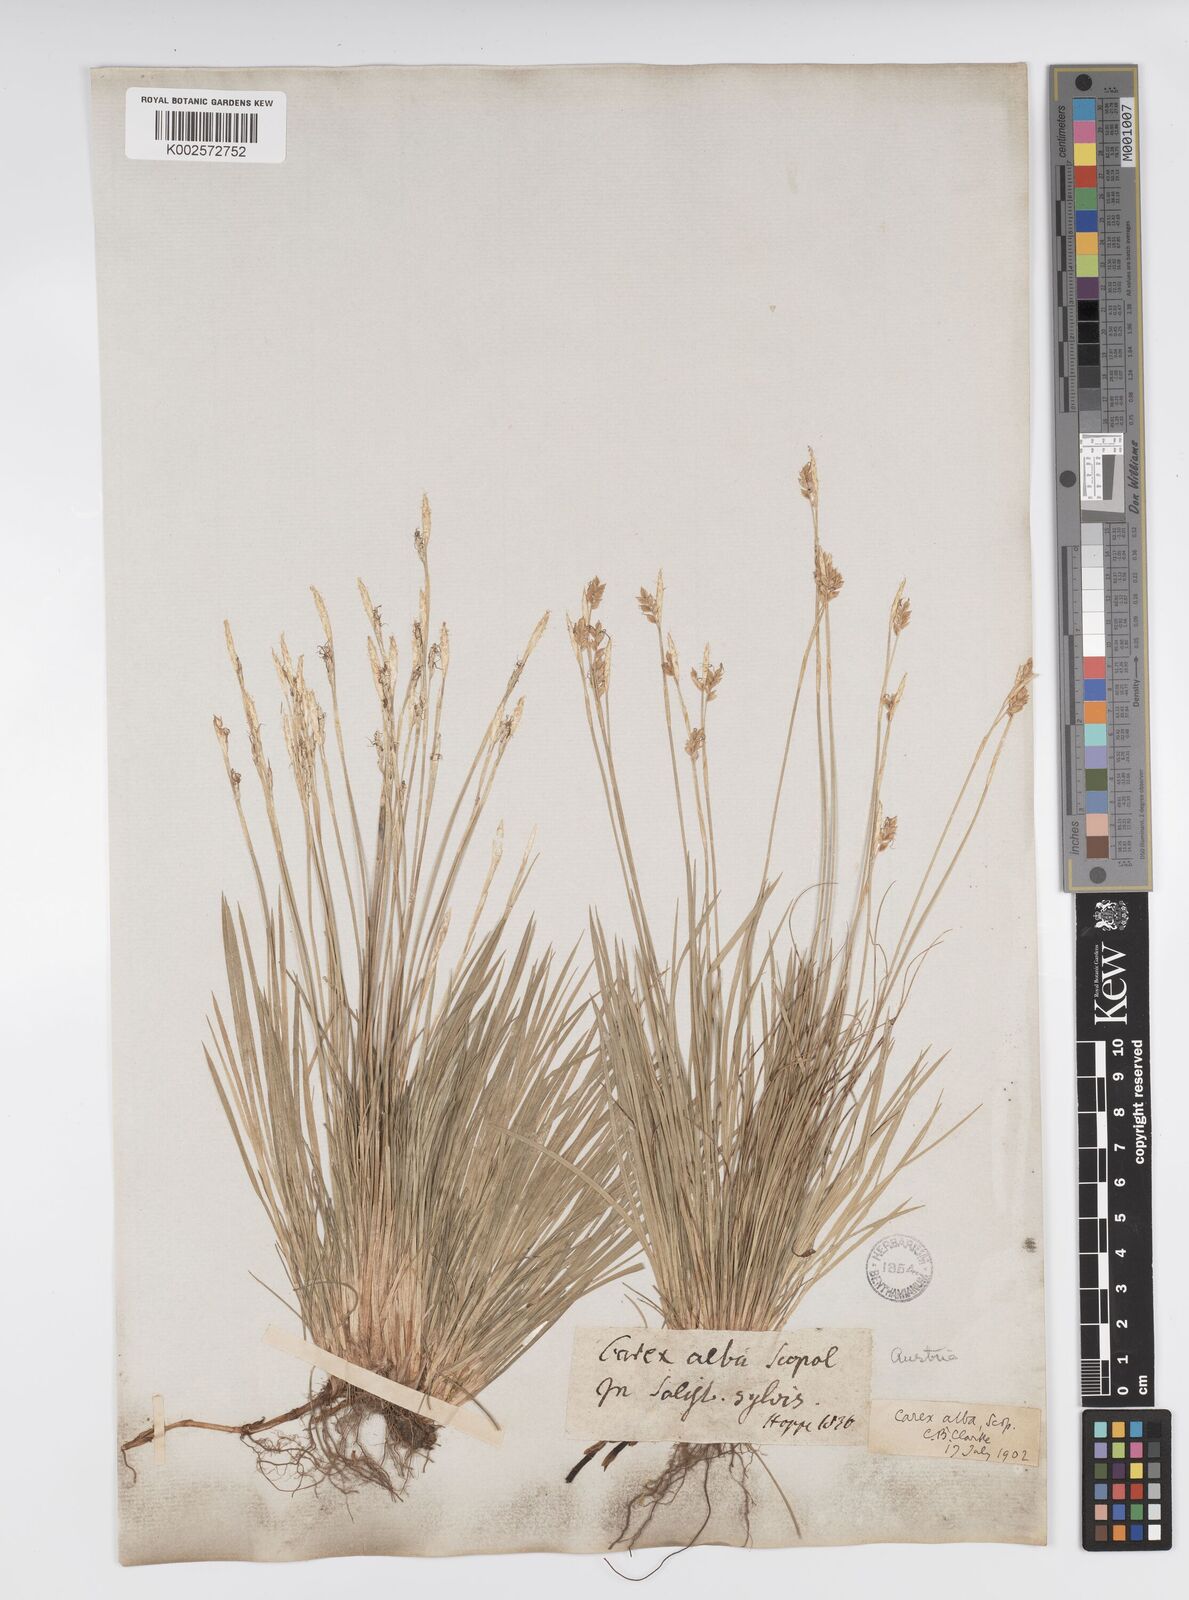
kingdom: Plantae
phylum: Tracheophyta
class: Liliopsida
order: Poales
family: Cyperaceae
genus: Carex
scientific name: Carex alba
